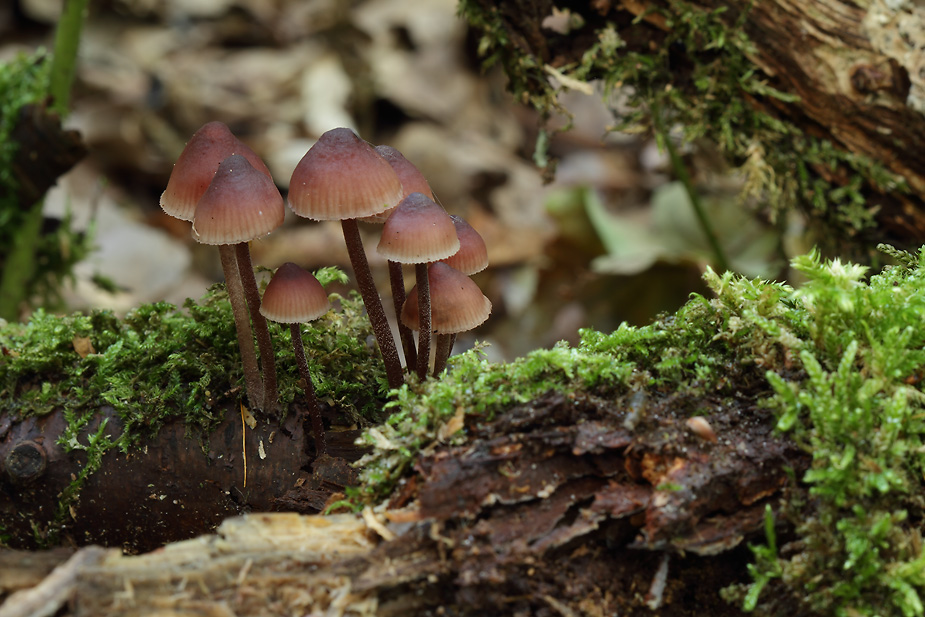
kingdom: Fungi
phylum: Basidiomycota
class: Agaricomycetes
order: Agaricales
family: Mycenaceae
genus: Mycena
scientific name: Mycena haematopus
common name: blødende huesvamp
